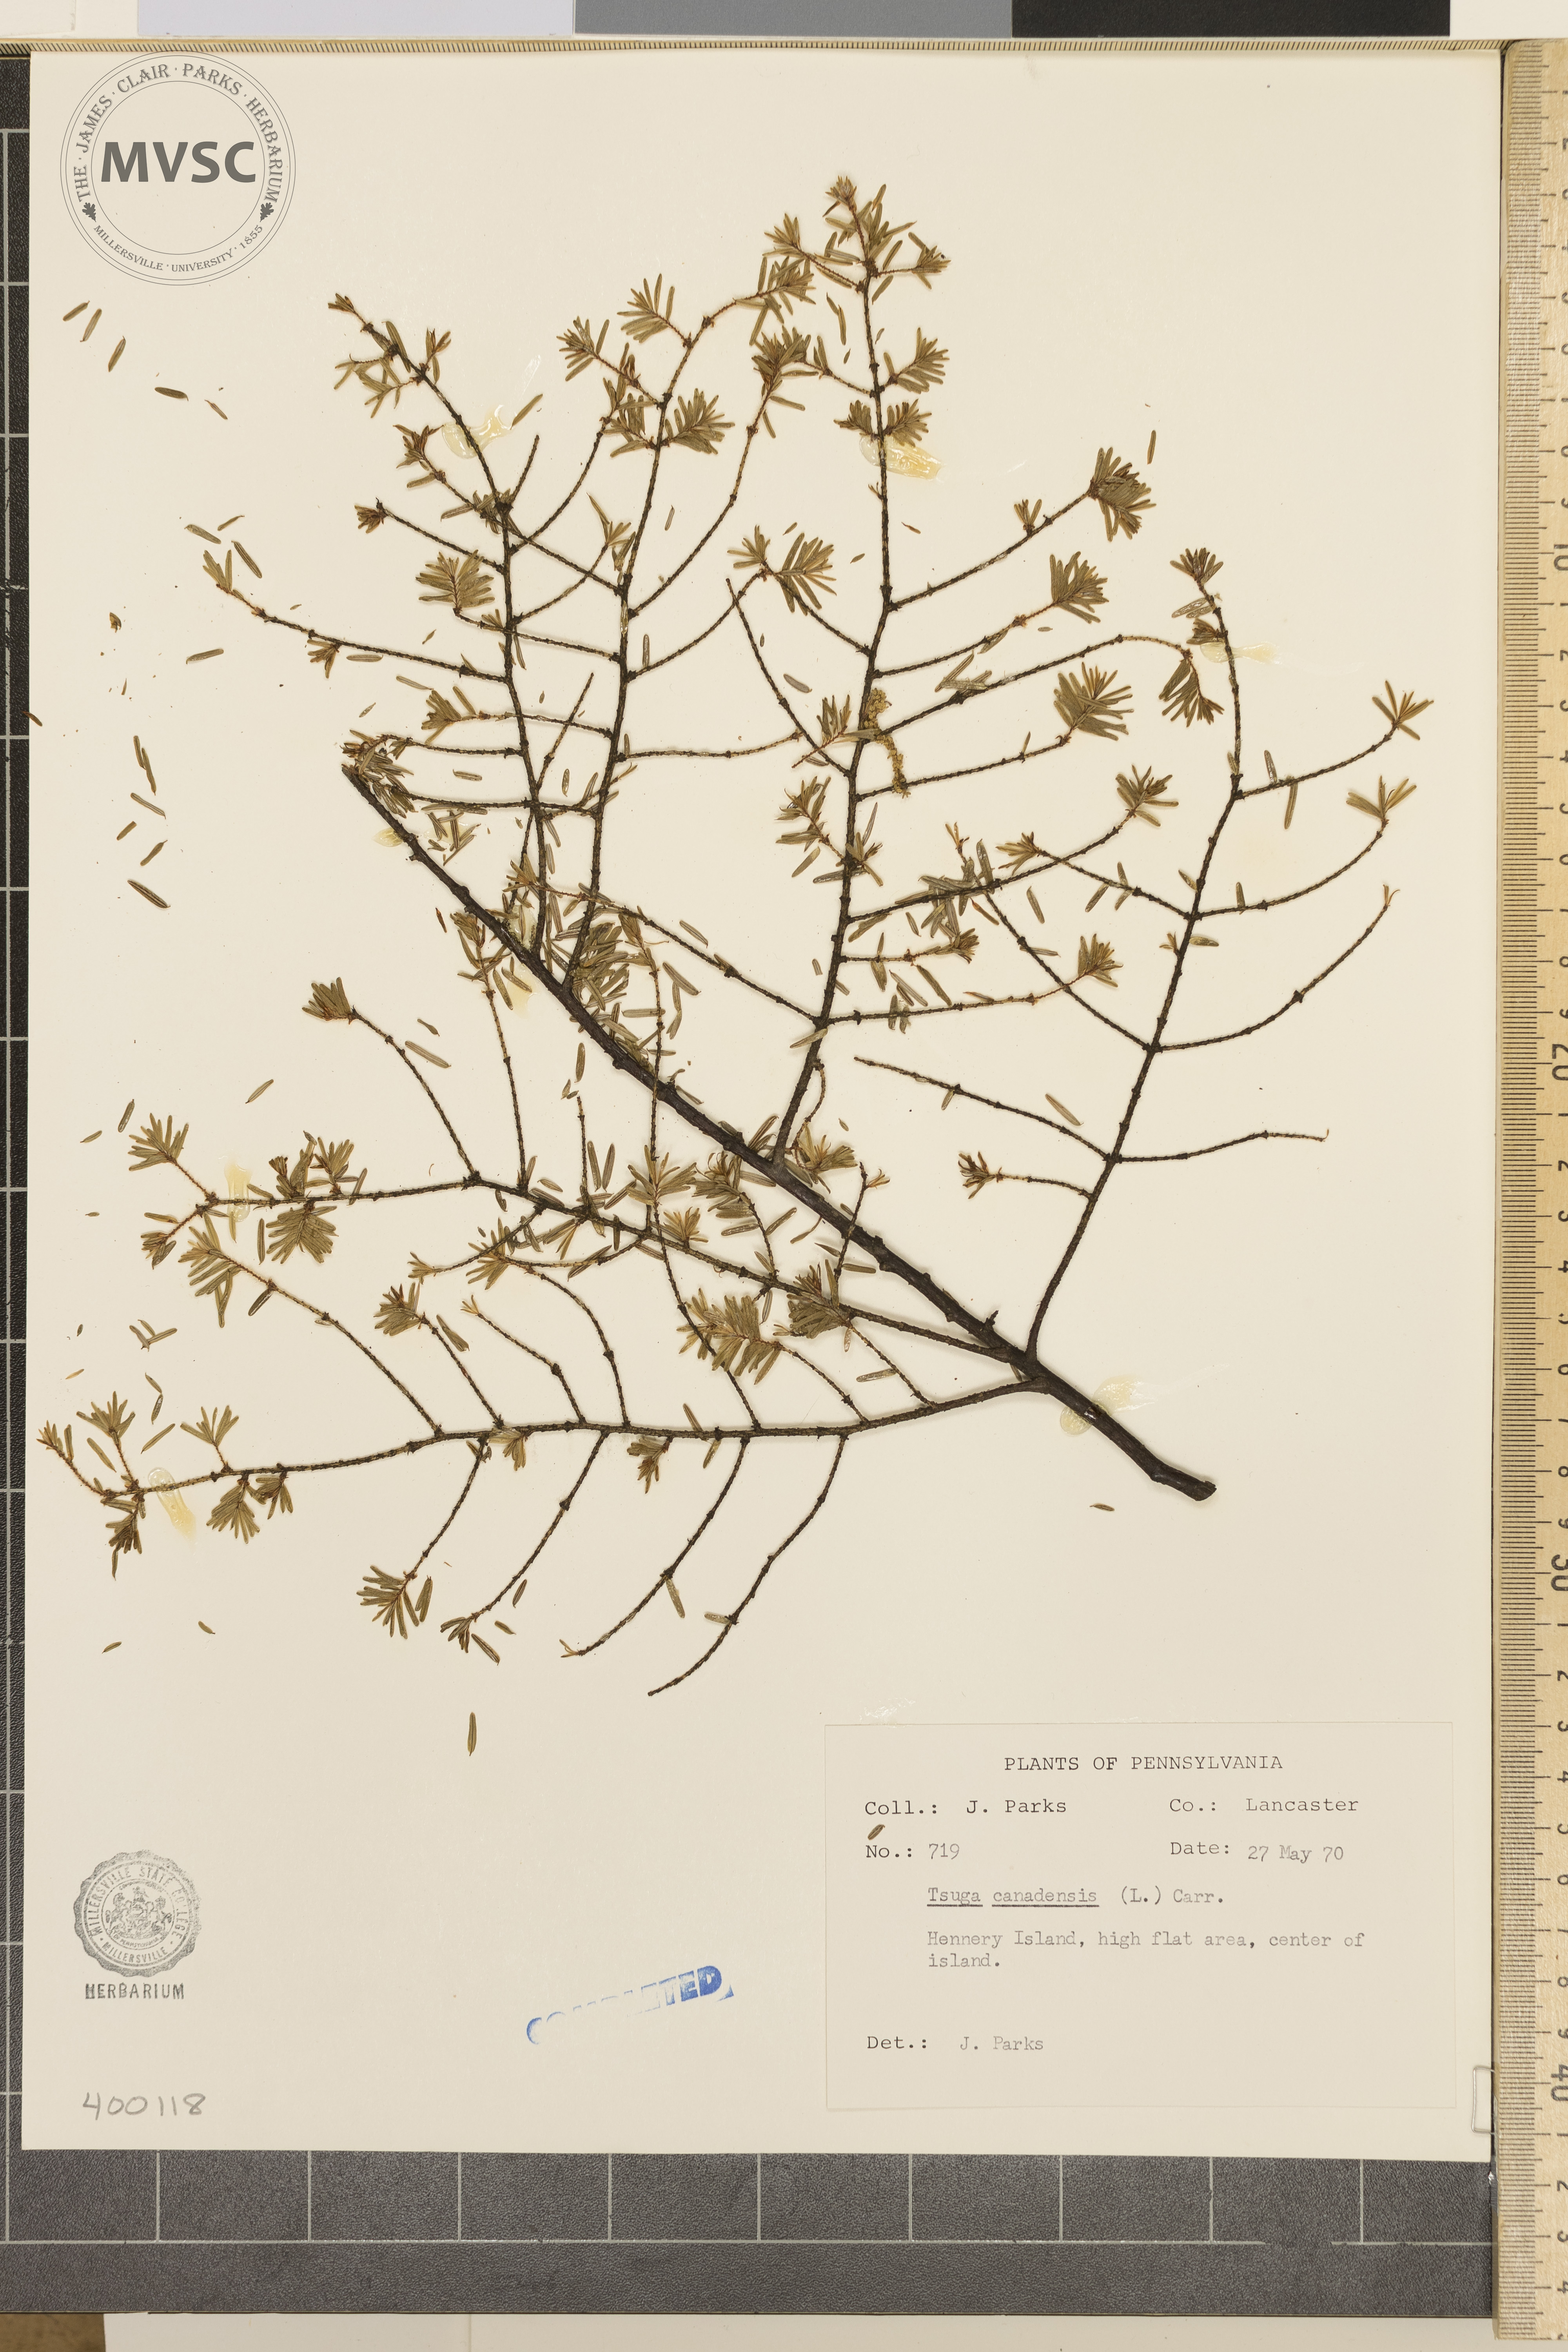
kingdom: Plantae
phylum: Tracheophyta
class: Pinopsida
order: Pinales
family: Pinaceae
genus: Tsuga
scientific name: Tsuga canadensis
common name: Eastern hemlock
